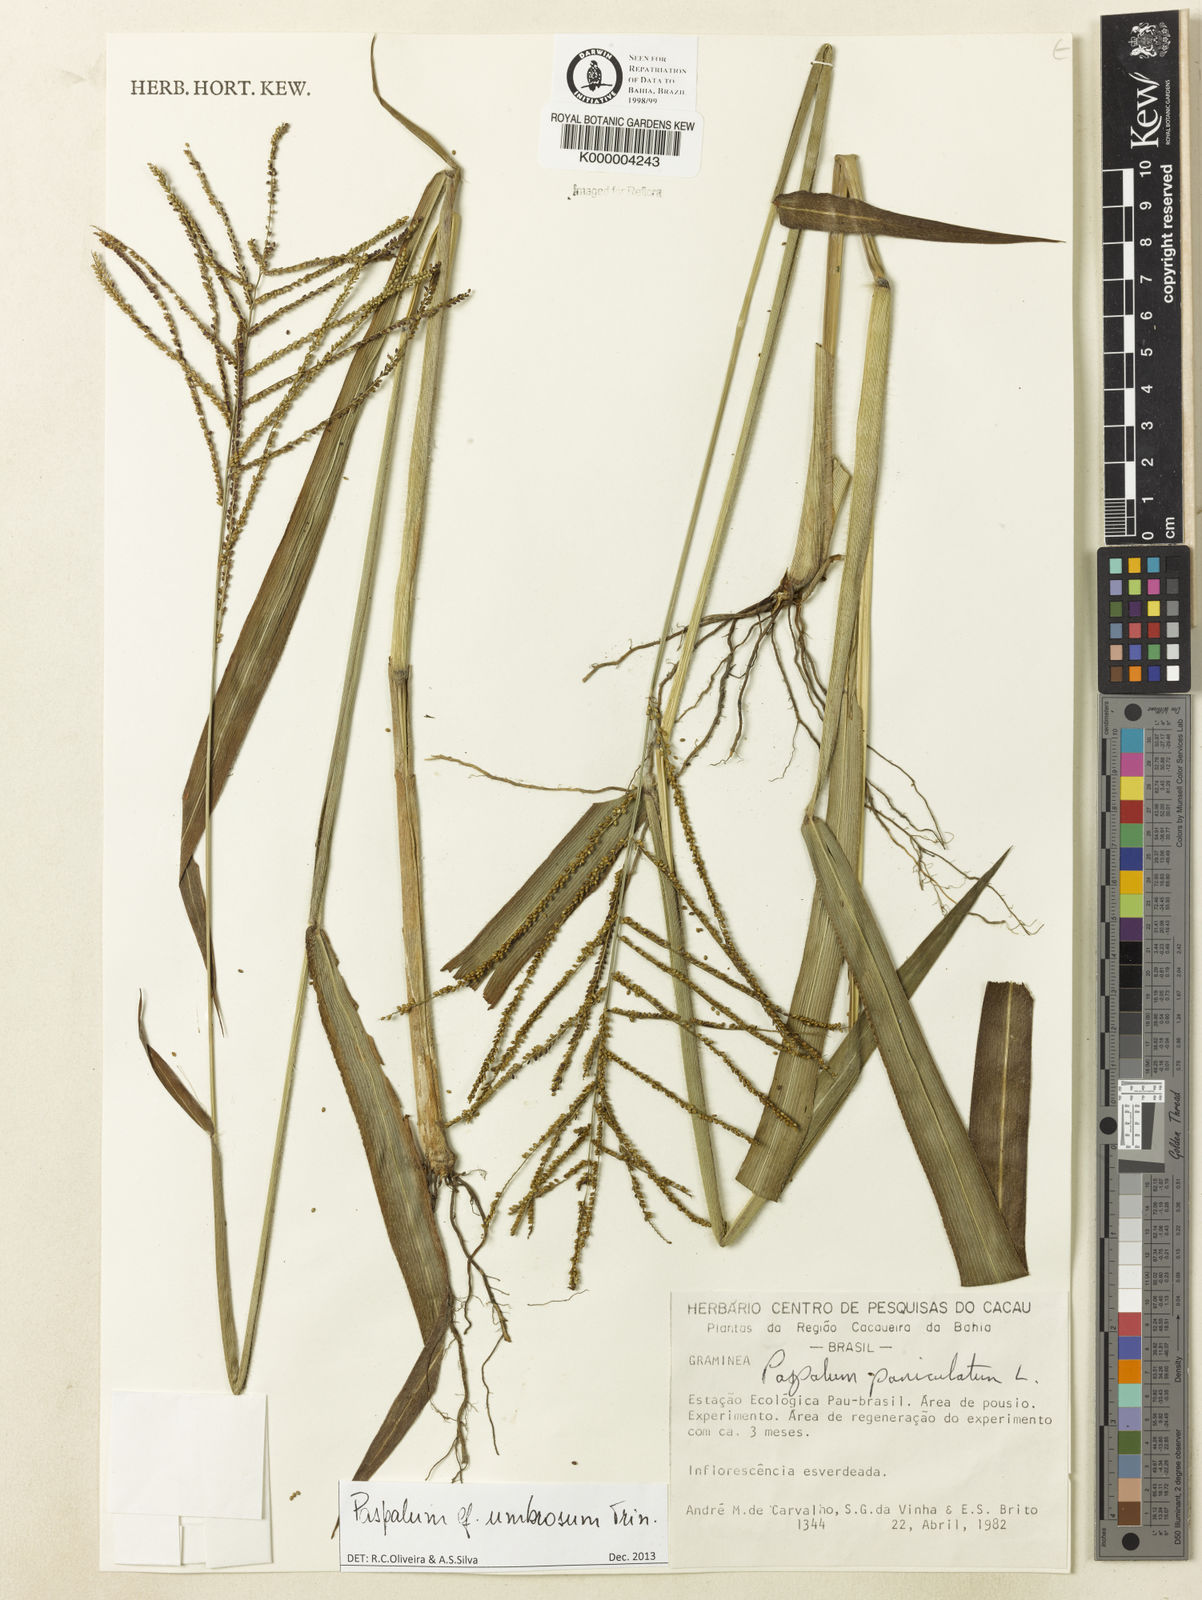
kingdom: Plantae
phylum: Tracheophyta
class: Liliopsida
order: Poales
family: Poaceae
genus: Paspalum
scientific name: Paspalum paniculatum
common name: Arrocillo
